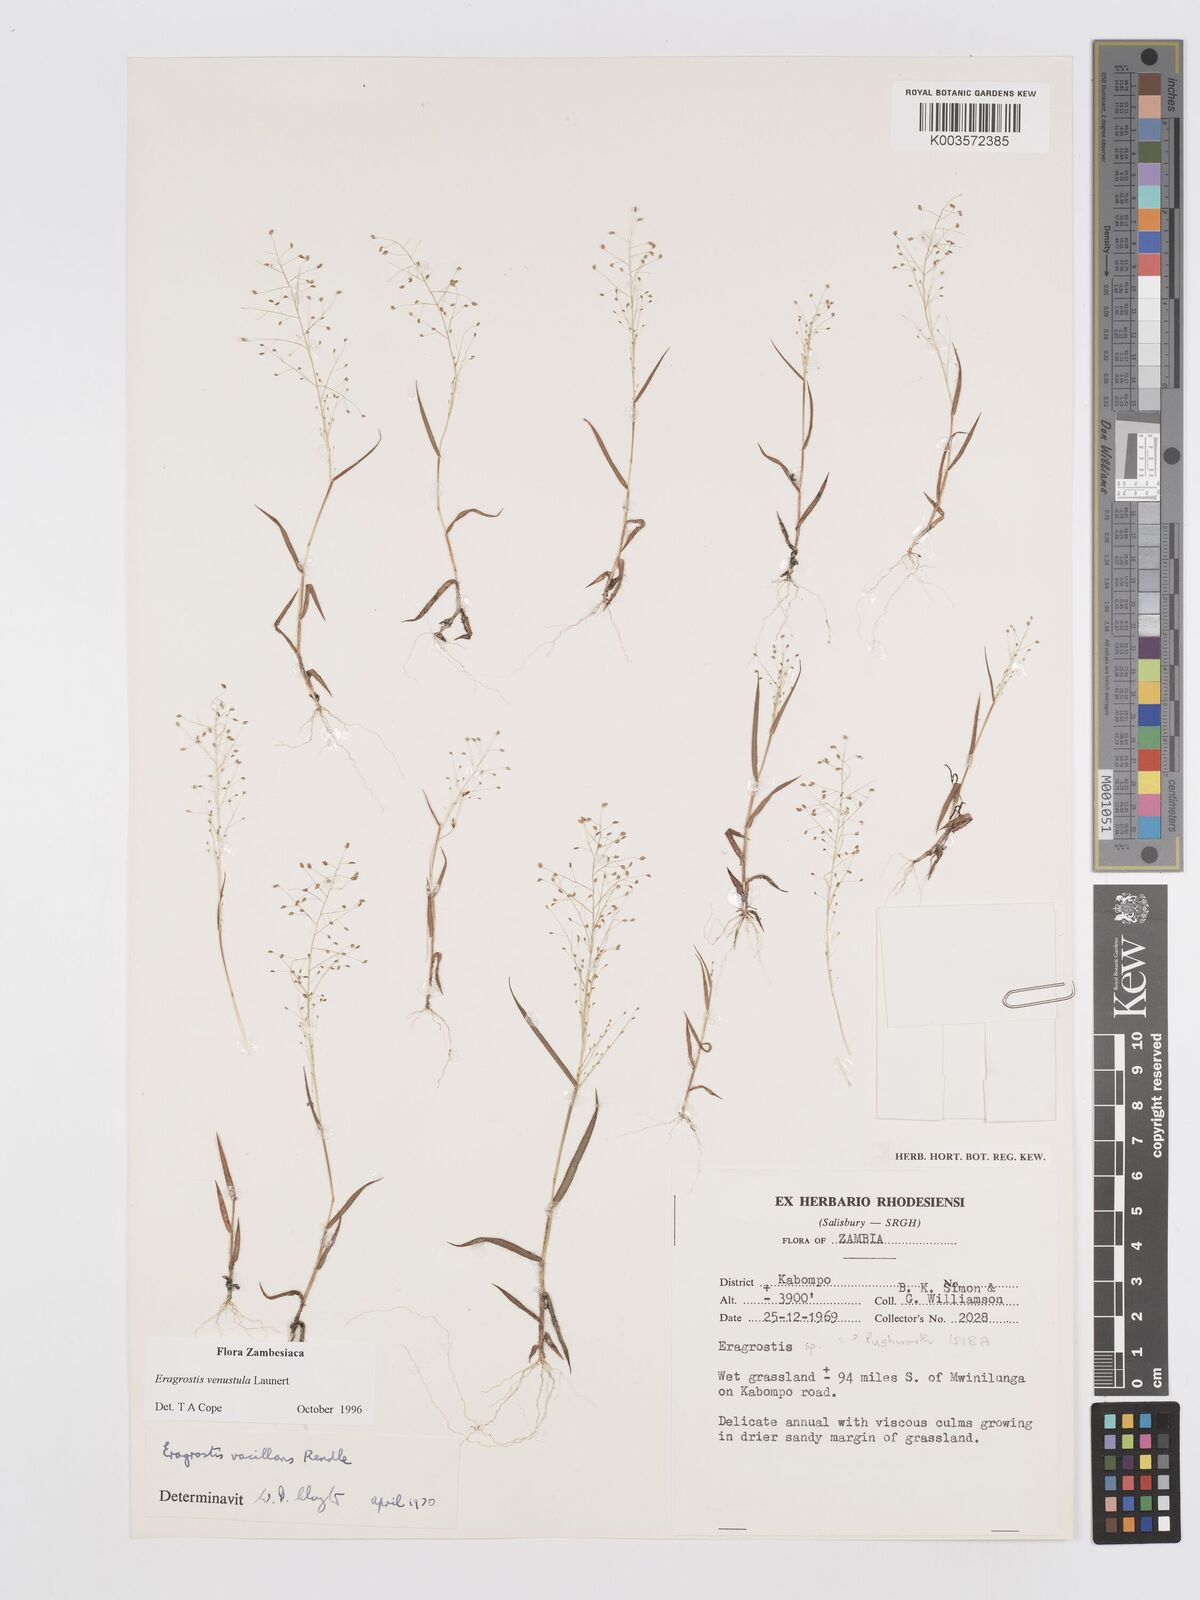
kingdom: Plantae
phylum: Tracheophyta
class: Liliopsida
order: Poales
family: Poaceae
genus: Eragrostis
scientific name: Eragrostis venustula
